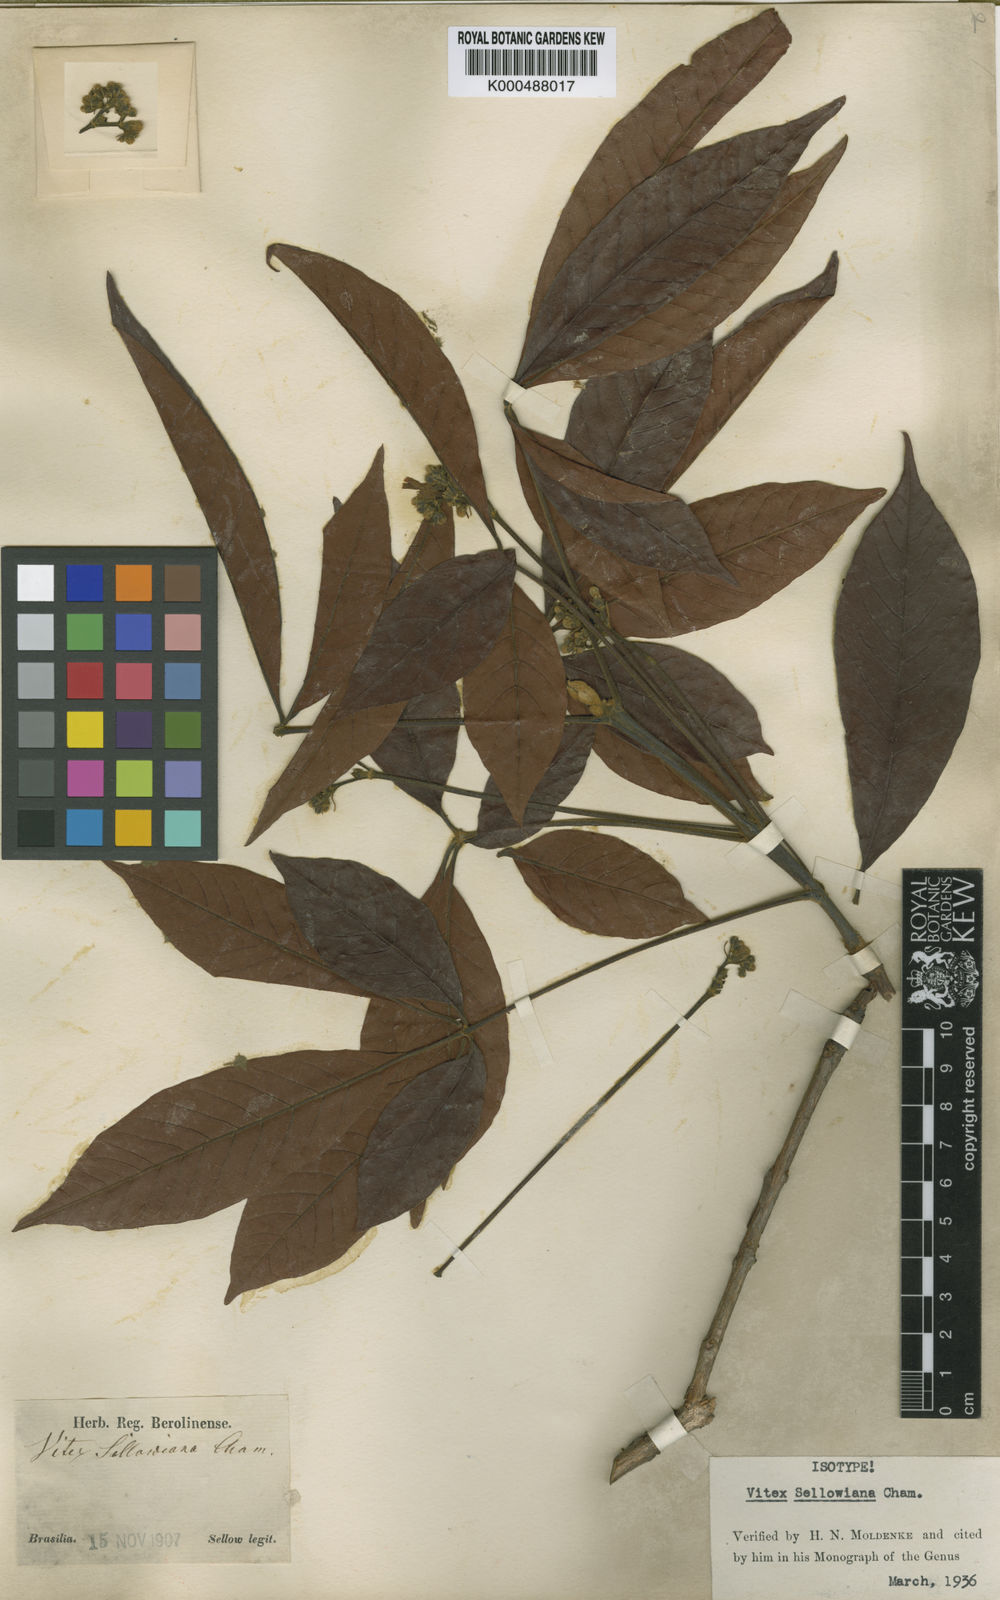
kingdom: Plantae
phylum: Tracheophyta
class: Magnoliopsida
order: Lamiales
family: Lamiaceae
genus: Vitex
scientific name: Vitex sellowiana
